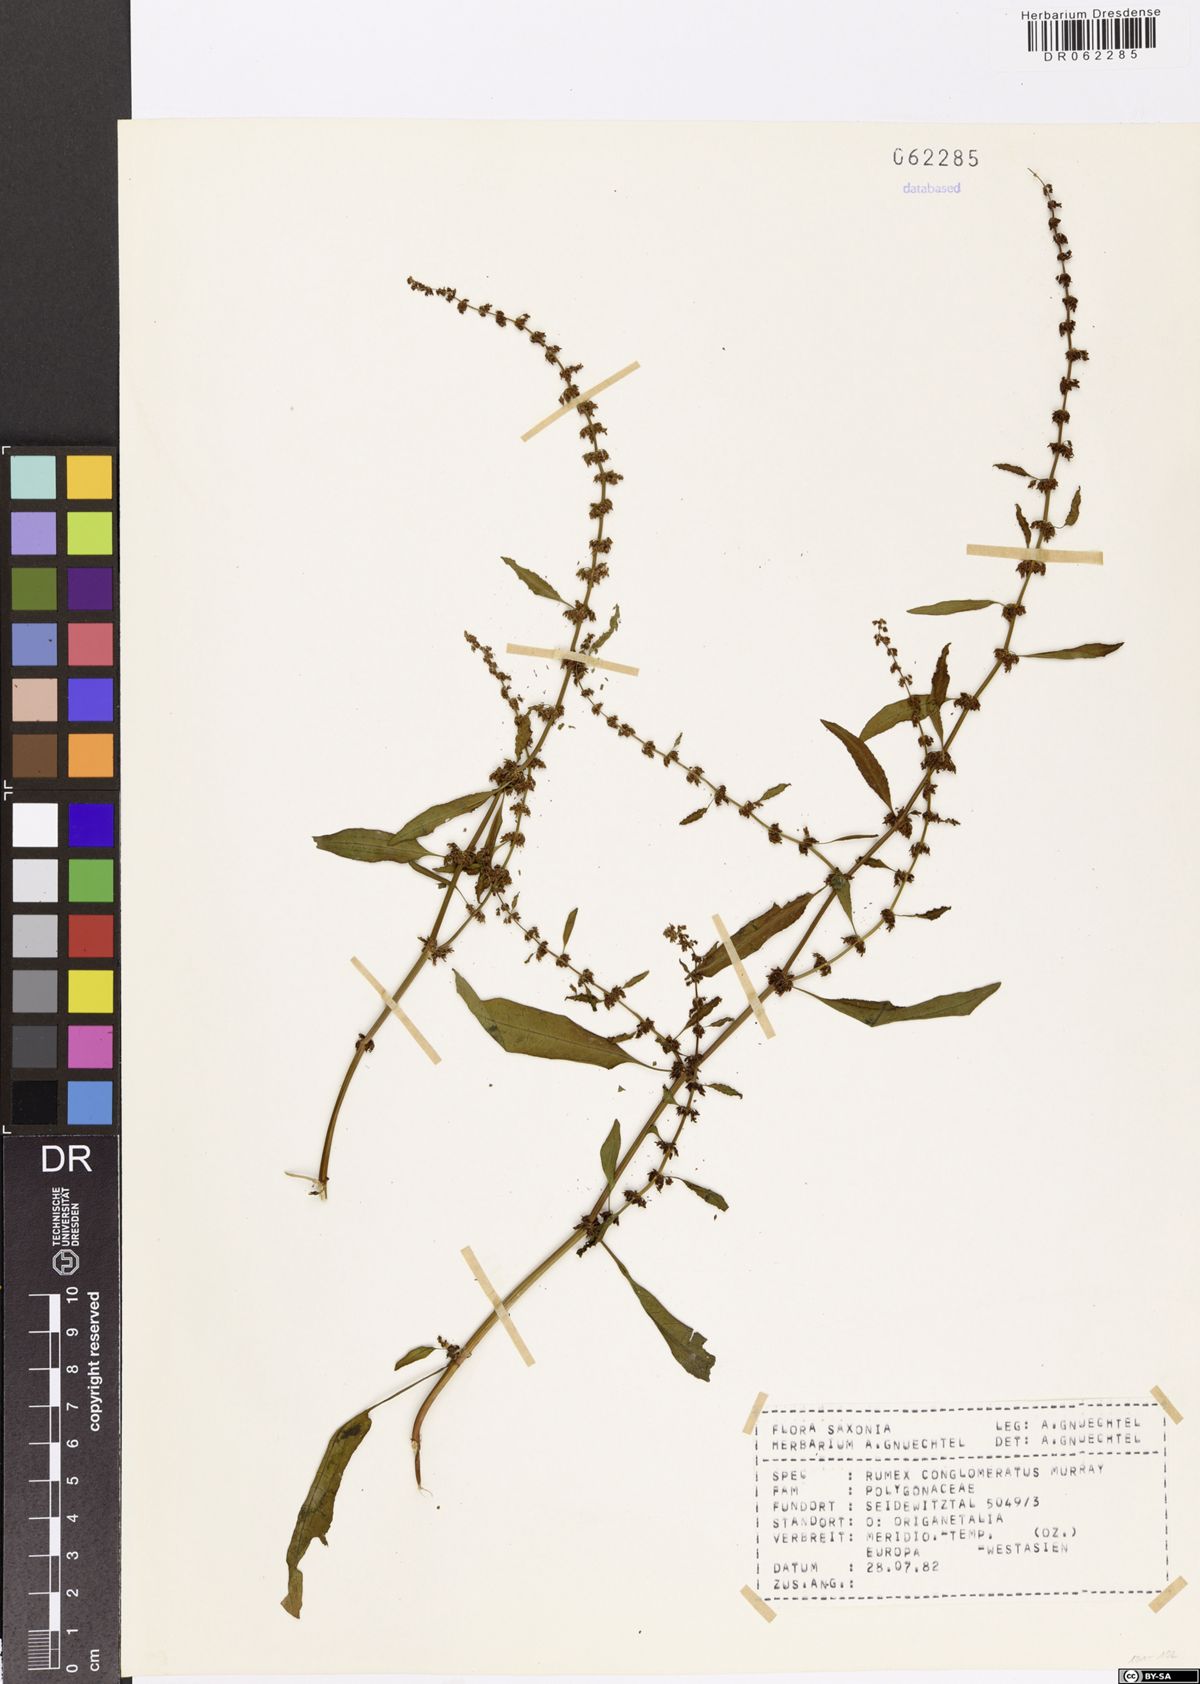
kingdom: Plantae
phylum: Tracheophyta
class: Magnoliopsida
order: Caryophyllales
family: Polygonaceae
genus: Rumex
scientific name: Rumex conglomeratus
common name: Clustered dock
